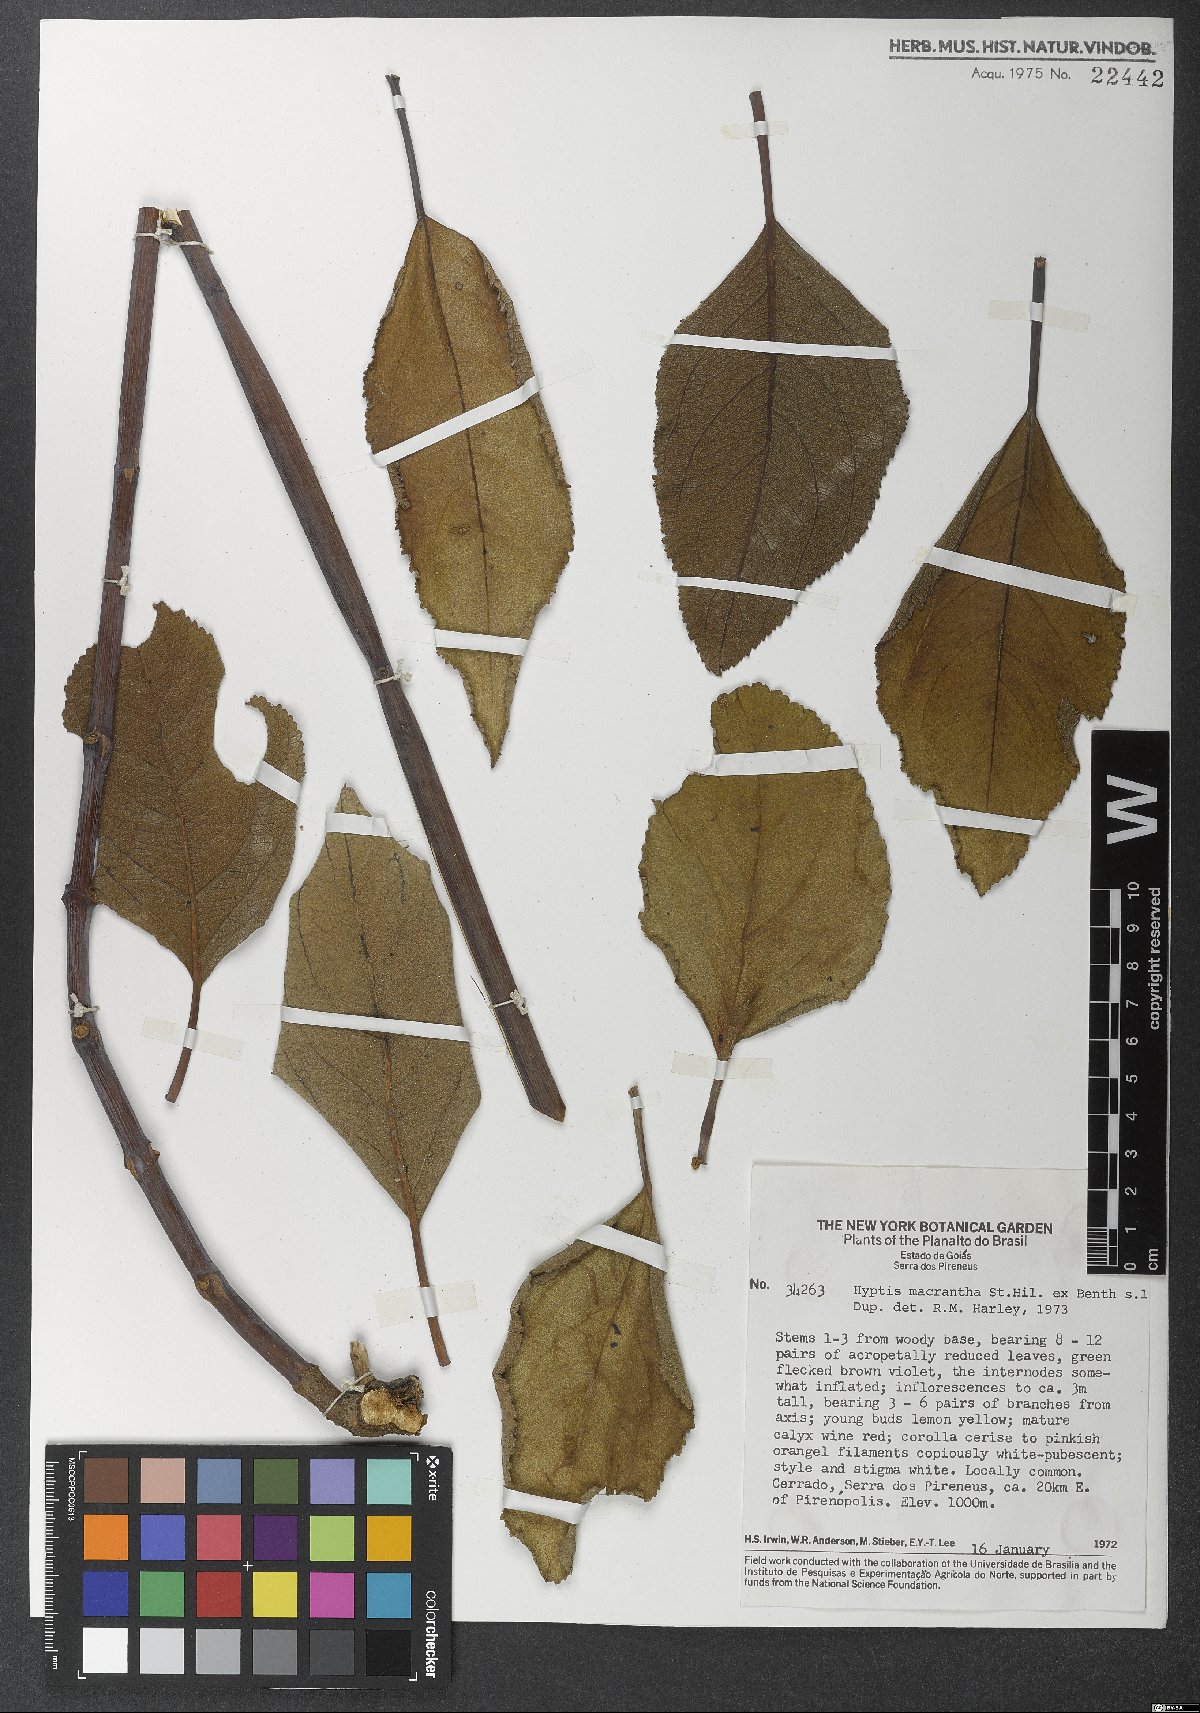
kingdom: Plantae
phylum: Tracheophyta
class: Magnoliopsida
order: Lamiales
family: Lamiaceae
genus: Hypenia
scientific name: Hypenia macrantha
